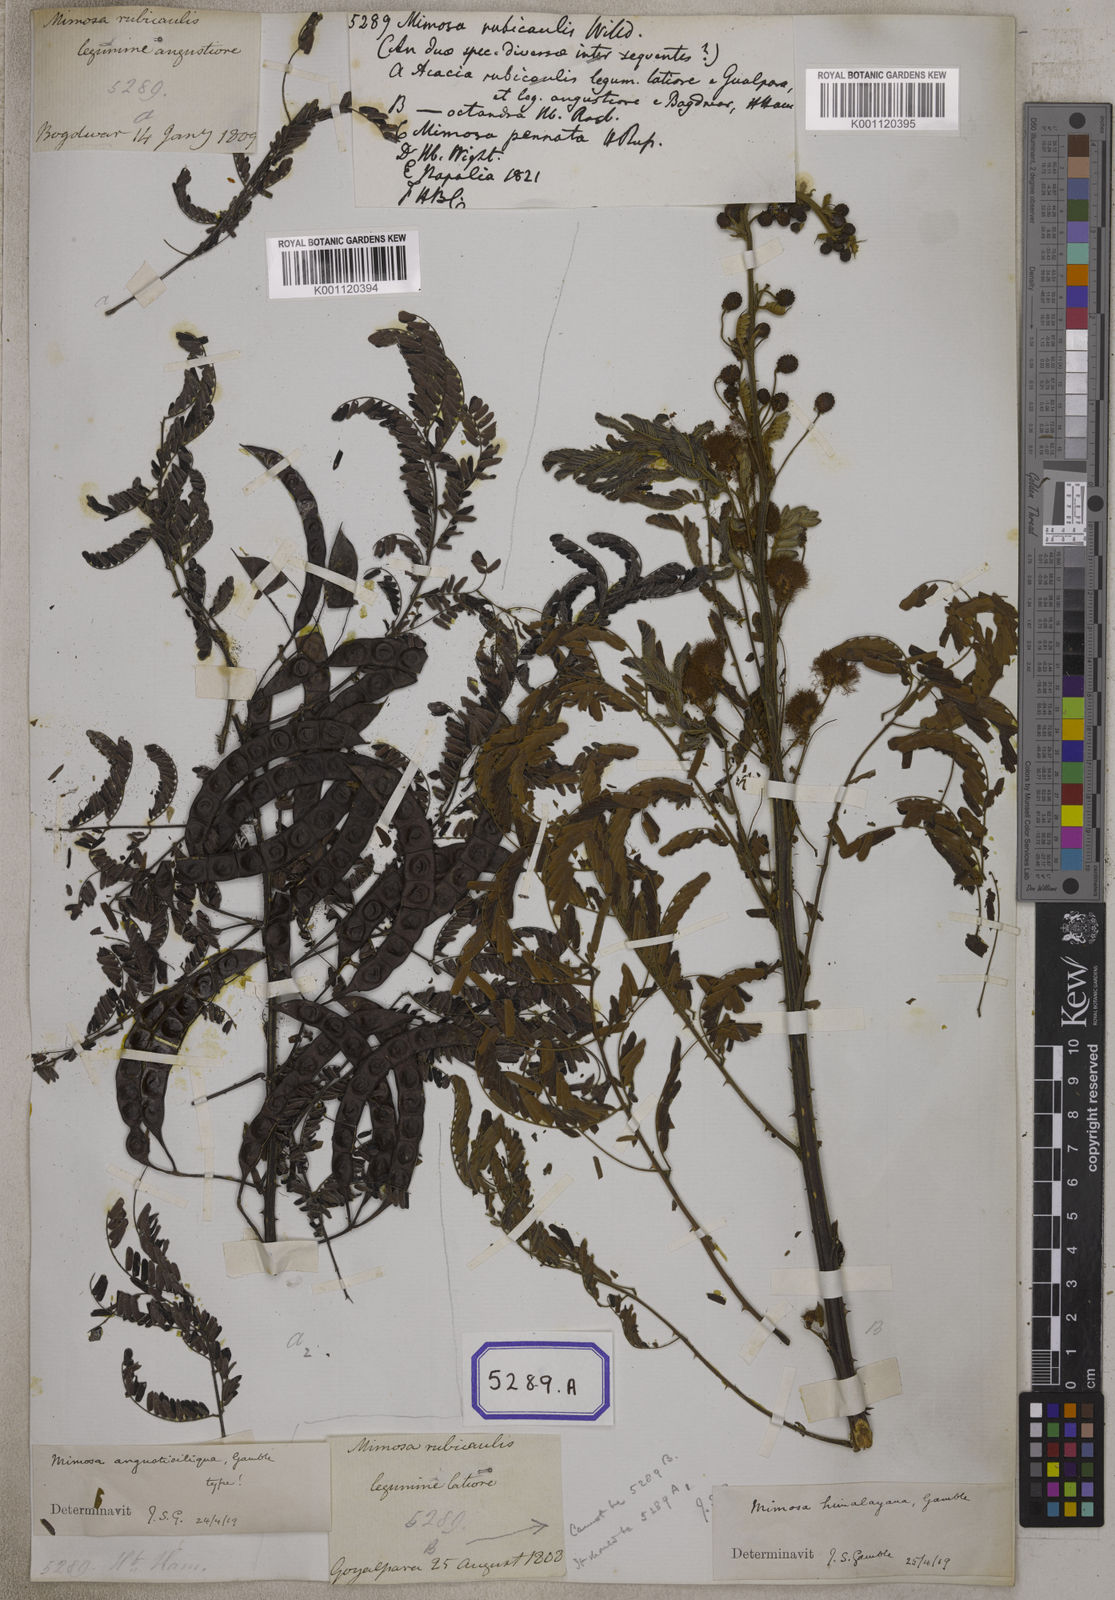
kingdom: Plantae
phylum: Tracheophyta
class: Magnoliopsida
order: Fabales
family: Fabaceae
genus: Mimosa
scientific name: Mimosa rubicaulis
